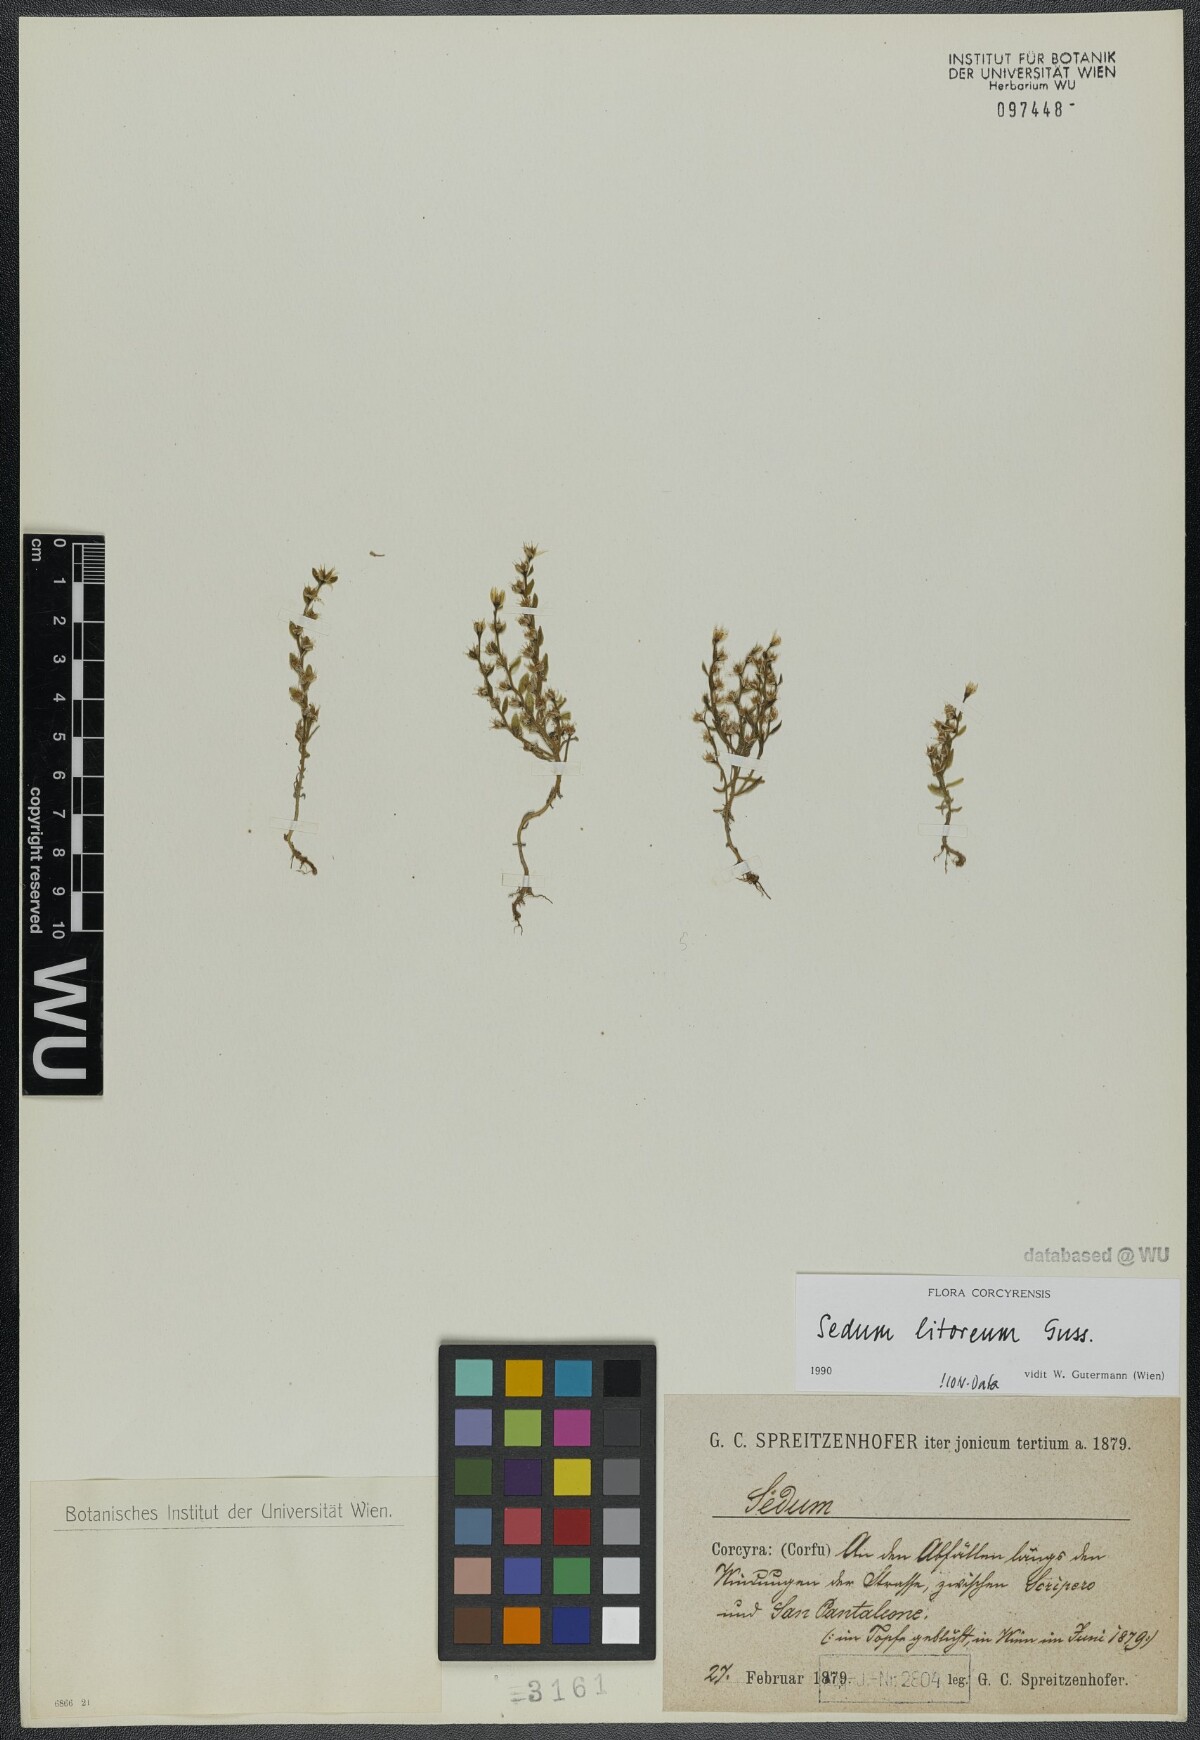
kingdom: Plantae
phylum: Tracheophyta
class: Magnoliopsida
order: Saxifragales
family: Crassulaceae
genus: Sedum
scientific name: Sedum litoreum
